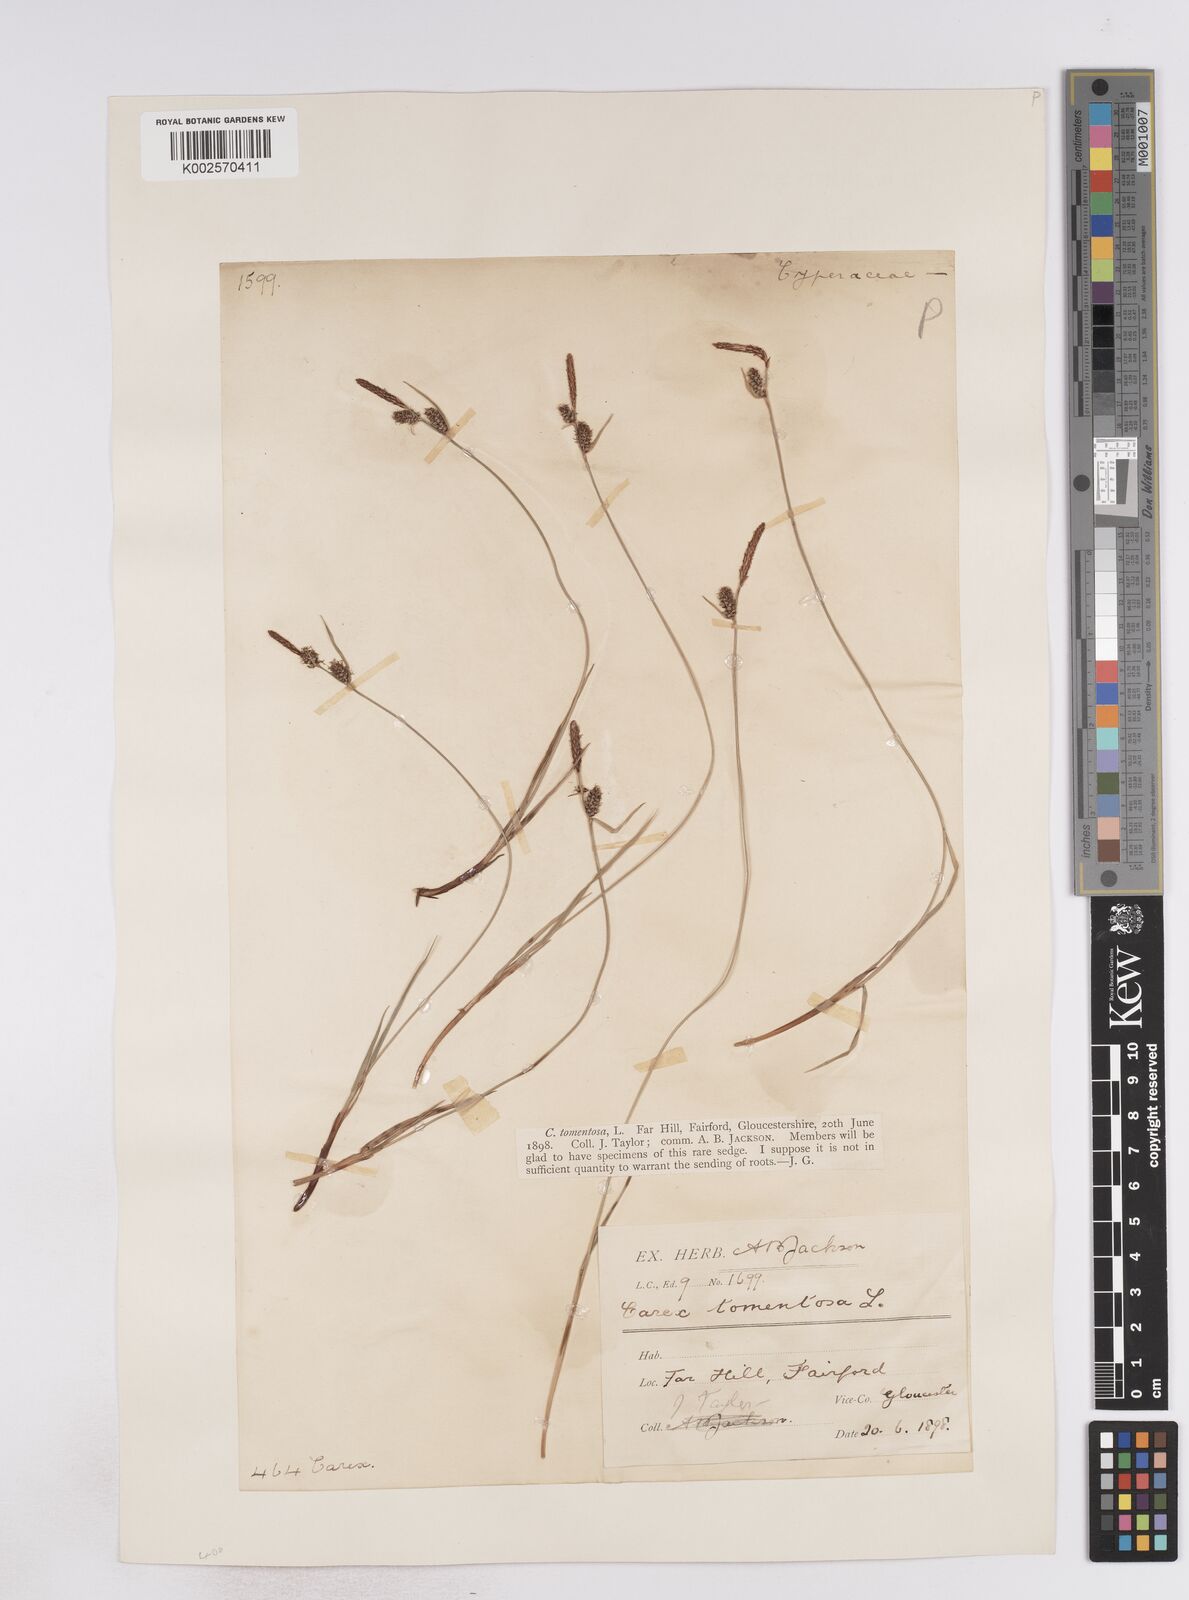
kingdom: Plantae
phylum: Tracheophyta
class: Liliopsida
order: Poales
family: Cyperaceae
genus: Carex
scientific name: Carex montana
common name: Soft-leaved sedge
